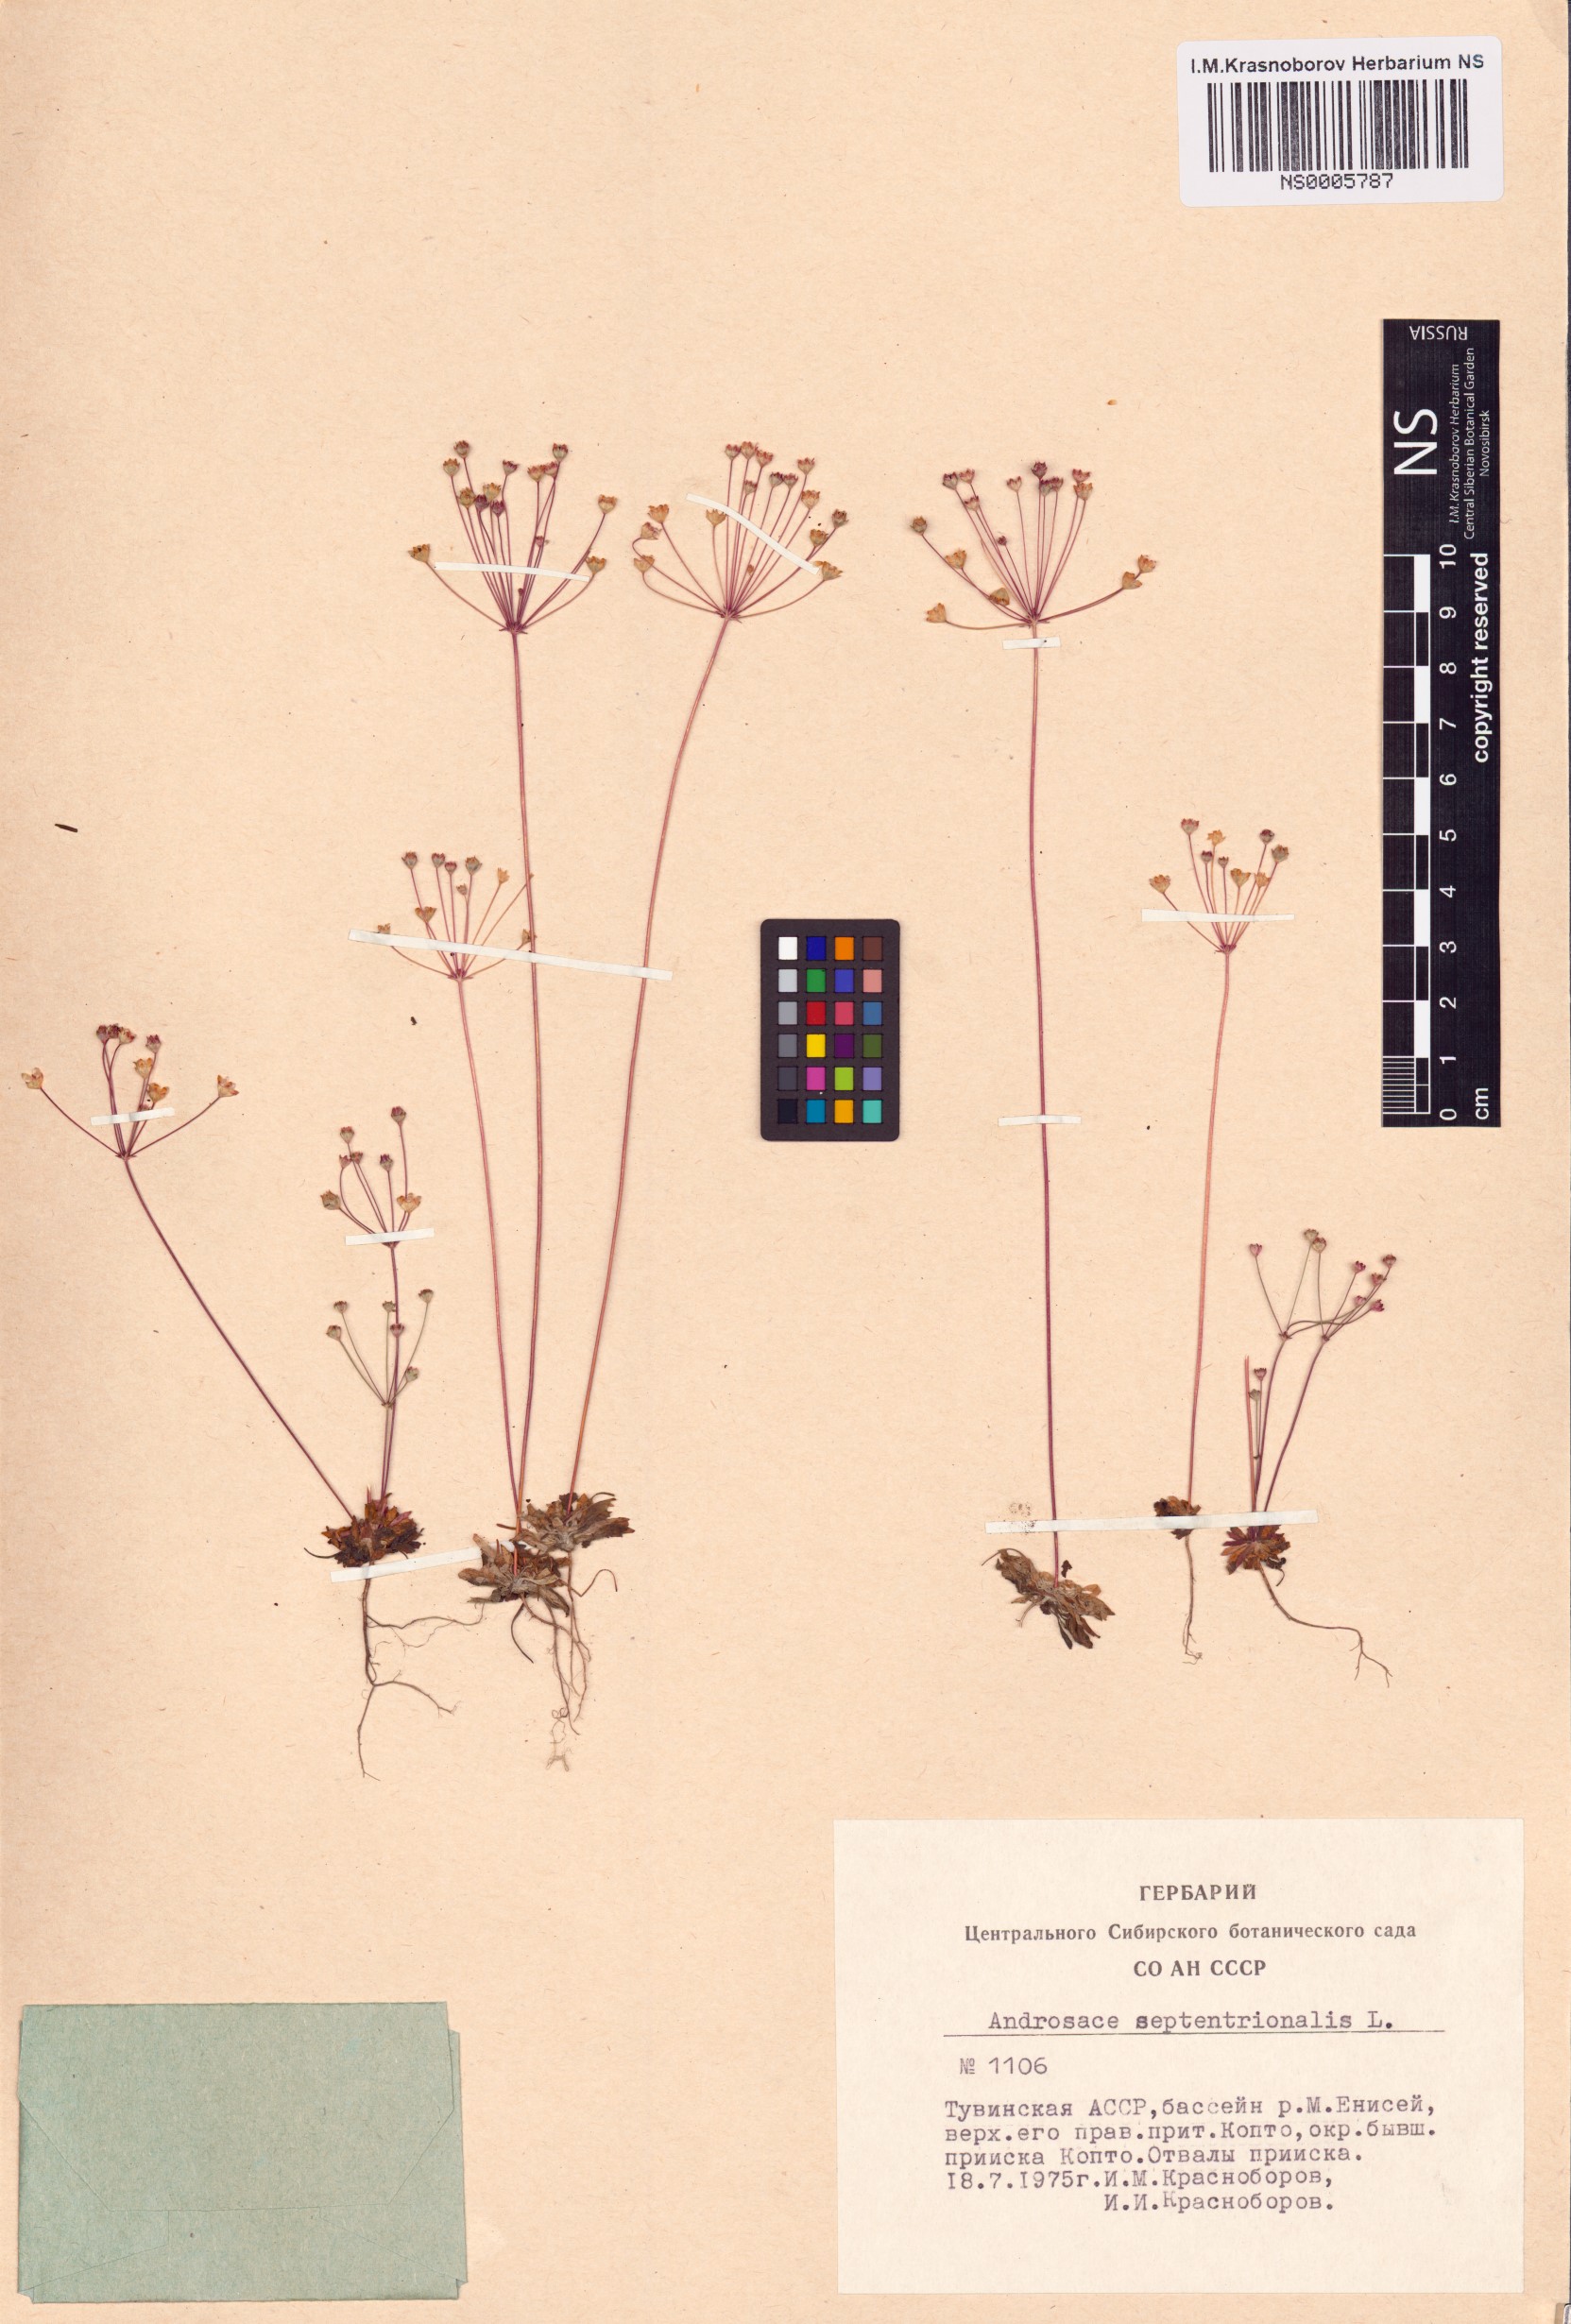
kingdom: Plantae
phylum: Tracheophyta
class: Magnoliopsida
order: Ericales
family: Primulaceae
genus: Androsace
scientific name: Androsace septentrionalis
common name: Hairy northern fairy-candelabra
